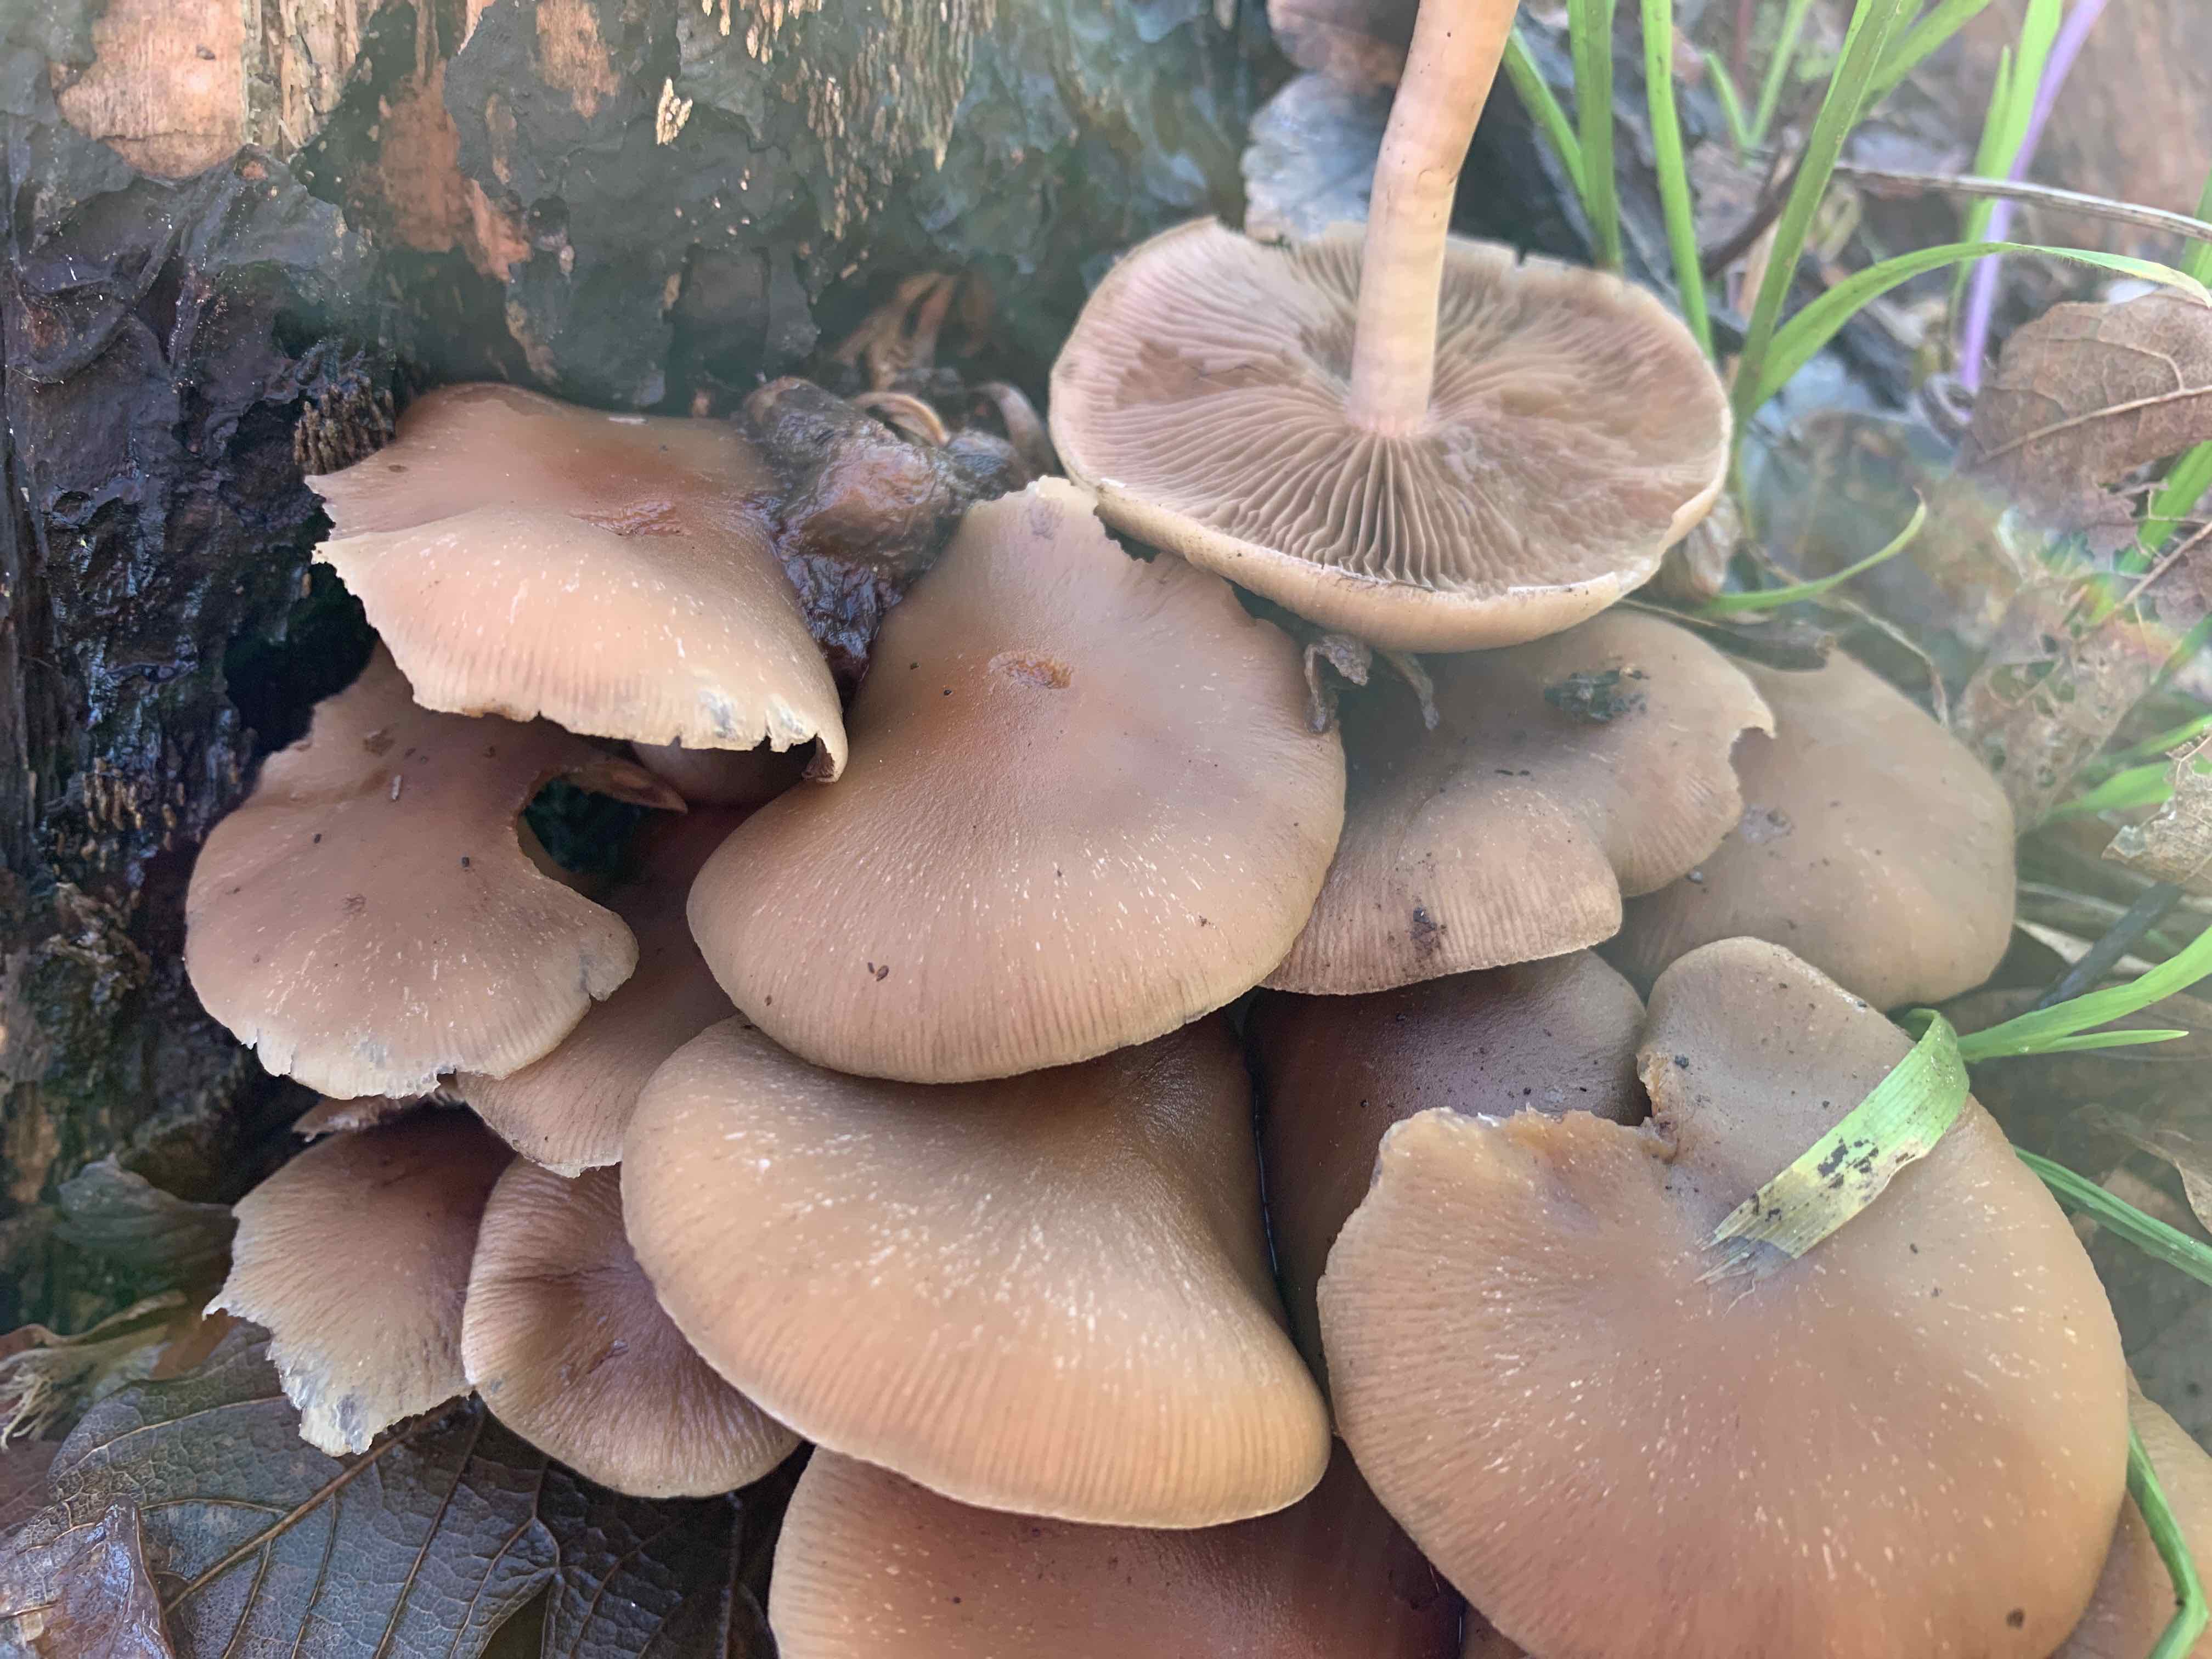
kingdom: Fungi
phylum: Basidiomycota
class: Agaricomycetes
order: Agaricales
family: Psathyrellaceae
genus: Psathyrella
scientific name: Psathyrella piluliformis
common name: lysstokket mørkhat
